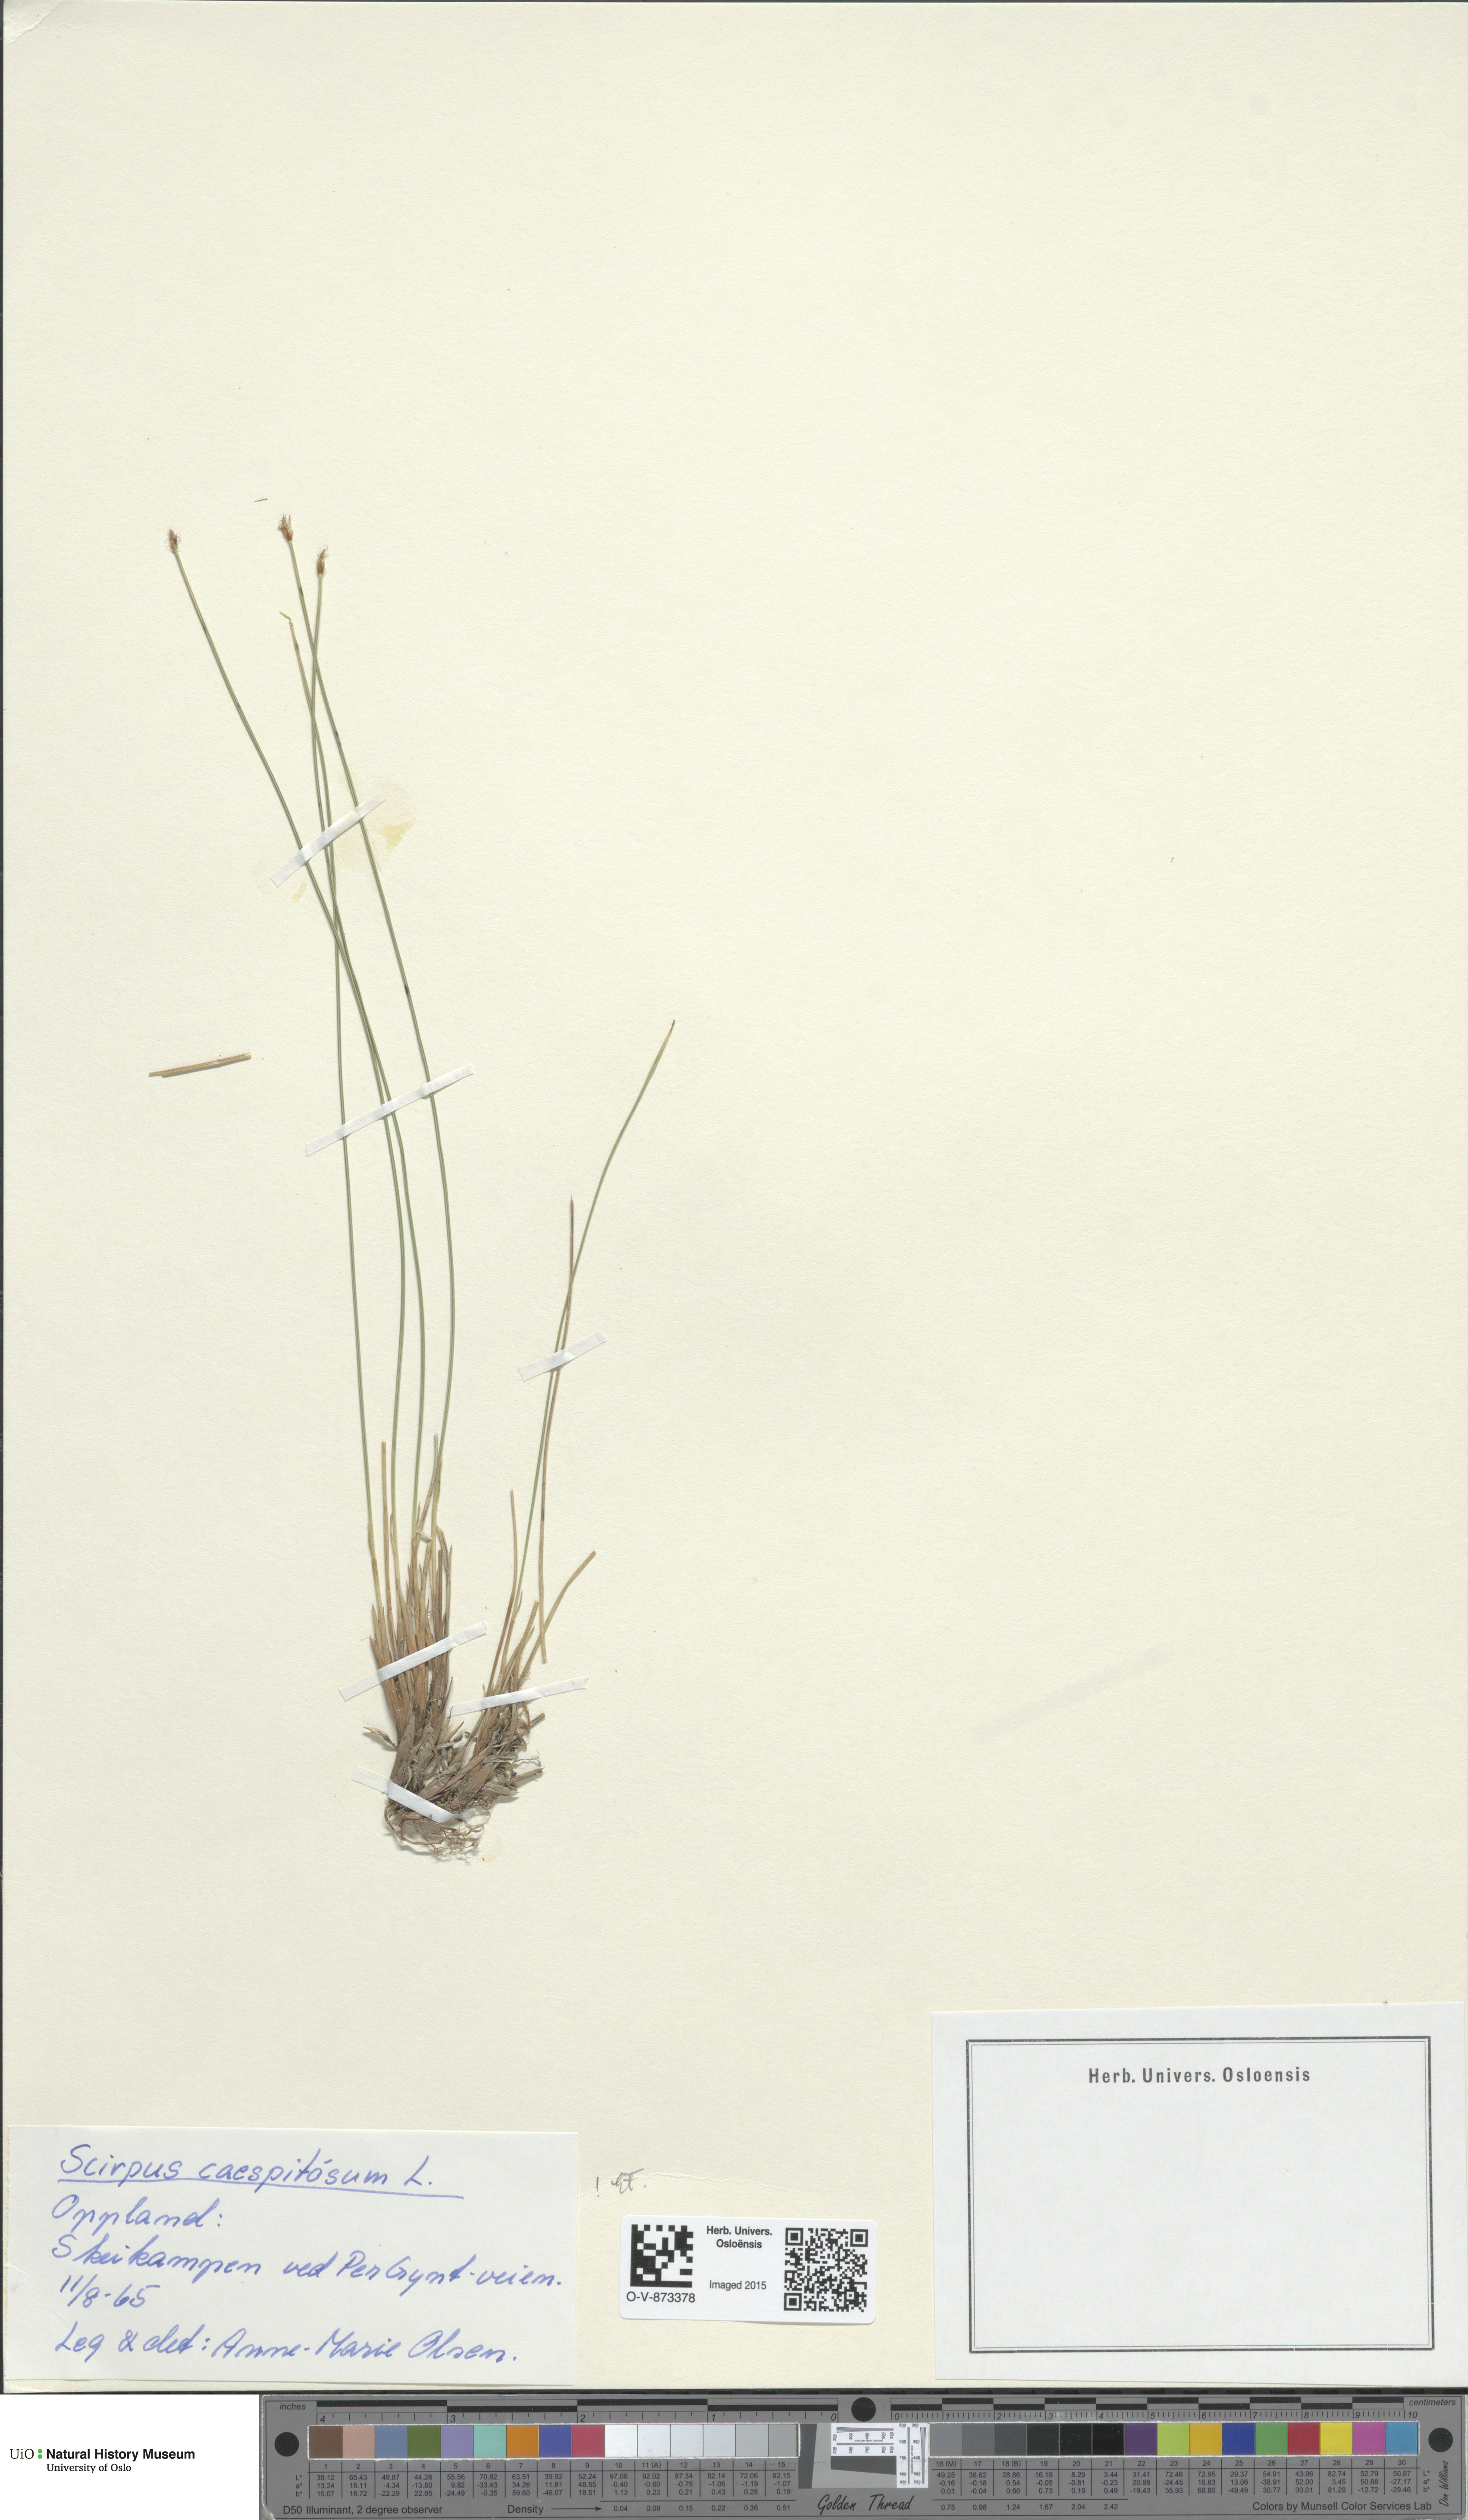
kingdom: Plantae
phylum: Tracheophyta
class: Liliopsida
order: Poales
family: Cyperaceae
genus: Trichophorum
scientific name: Trichophorum cespitosum
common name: Cespitose bulrush
